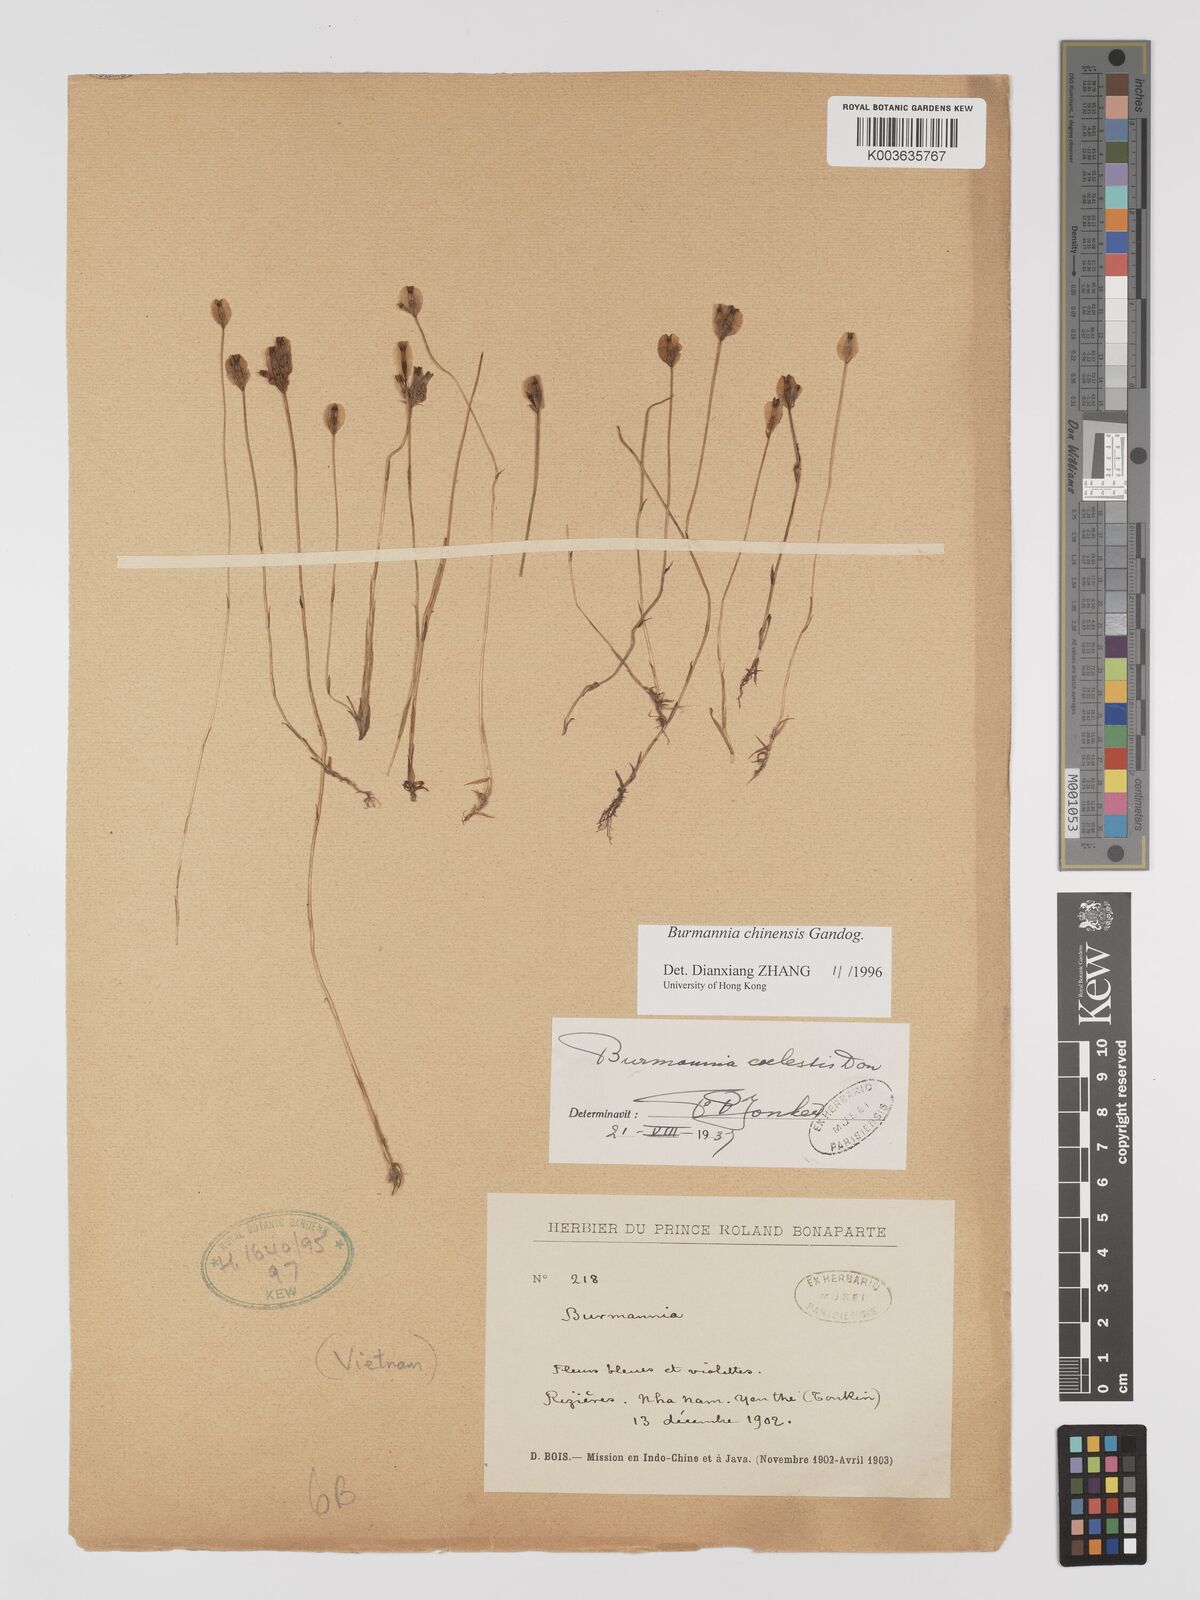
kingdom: Plantae
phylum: Tracheophyta
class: Liliopsida
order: Dioscoreales
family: Burmanniaceae
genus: Burmannia
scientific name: Burmannia chinensis
